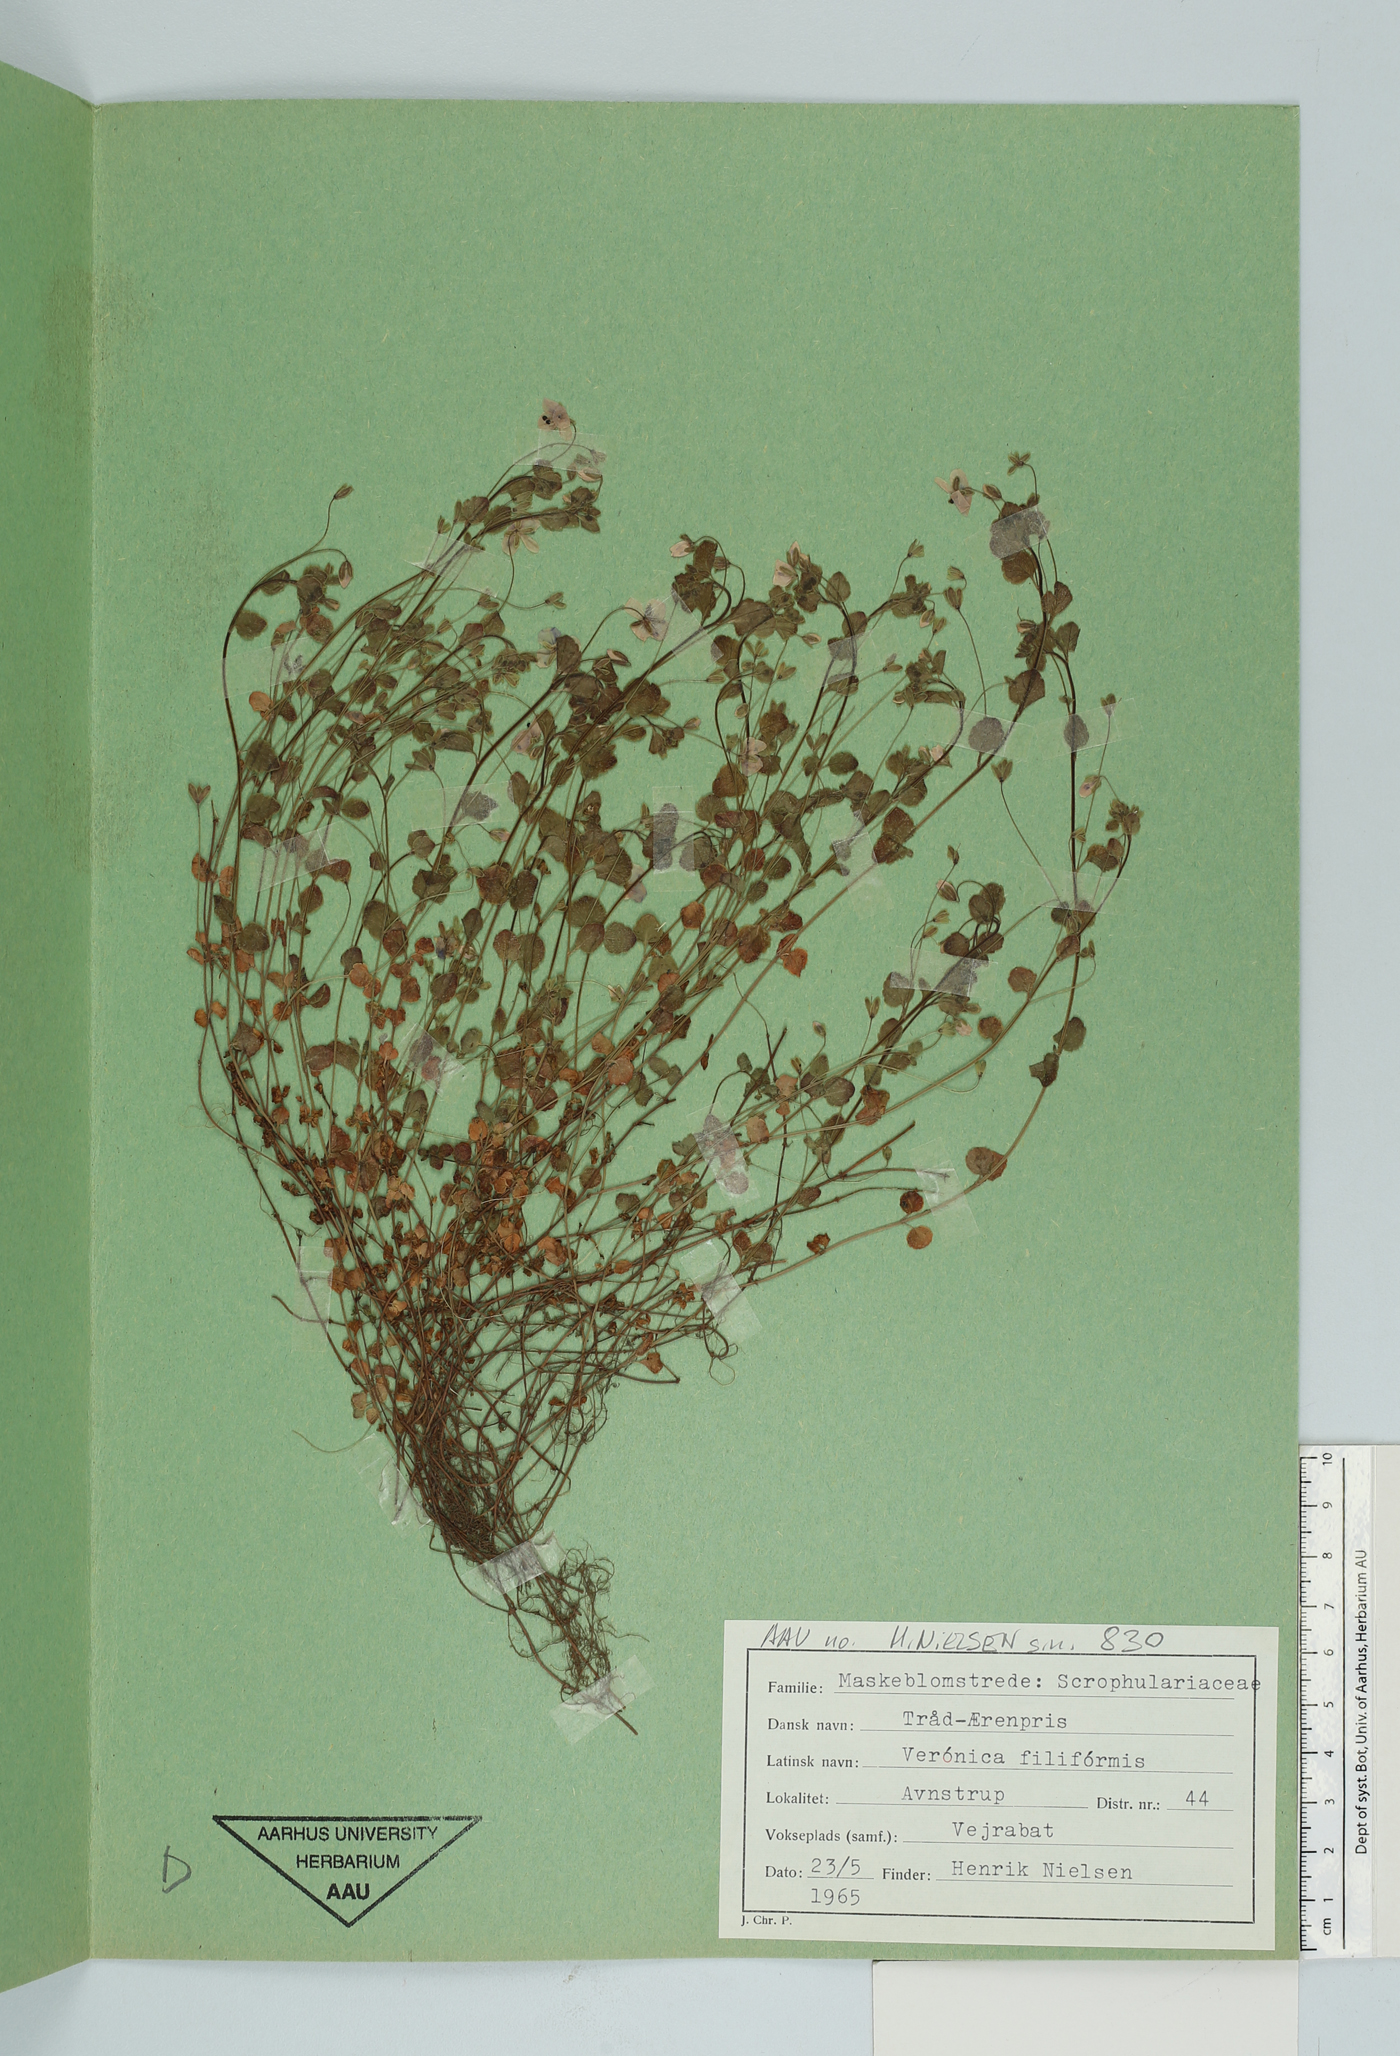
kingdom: Plantae
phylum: Tracheophyta
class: Magnoliopsida
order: Lamiales
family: Plantaginaceae
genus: Veronica
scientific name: Veronica filiformis
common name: Slender speedwell
